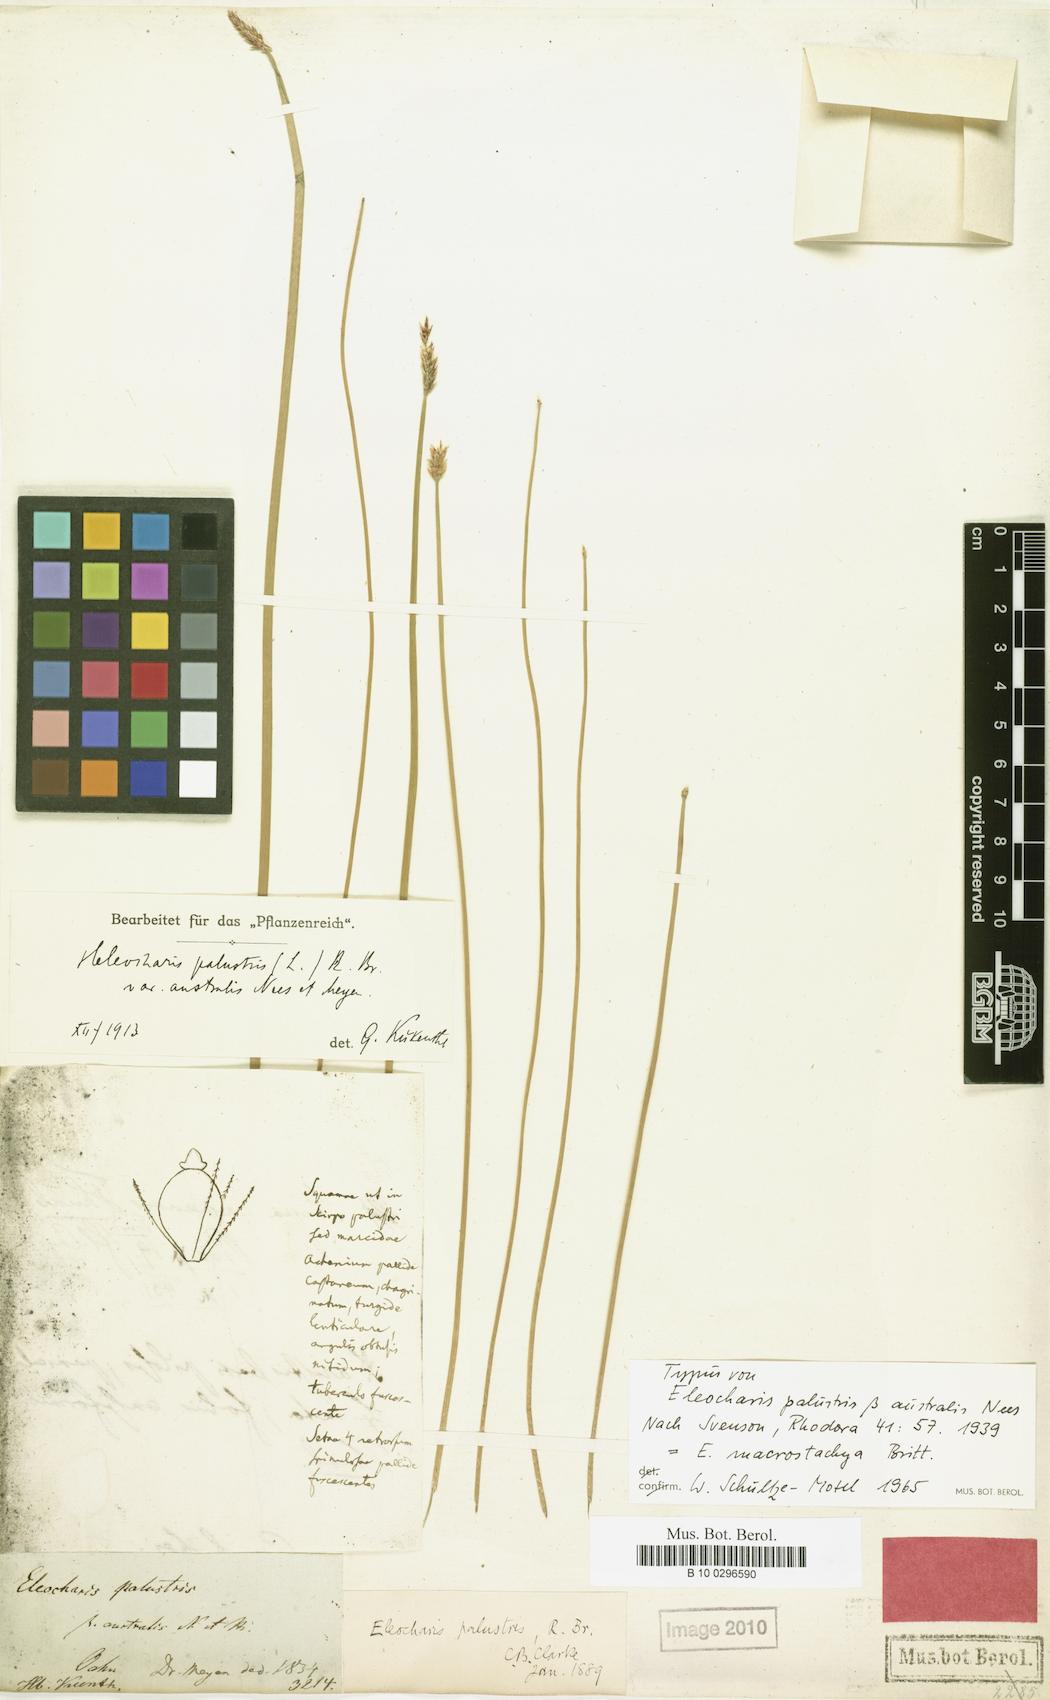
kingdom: Plantae
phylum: Tracheophyta
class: Liliopsida
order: Poales
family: Cyperaceae
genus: Eleocharis
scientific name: Eleocharis macrostachya
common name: Pale spikerush
